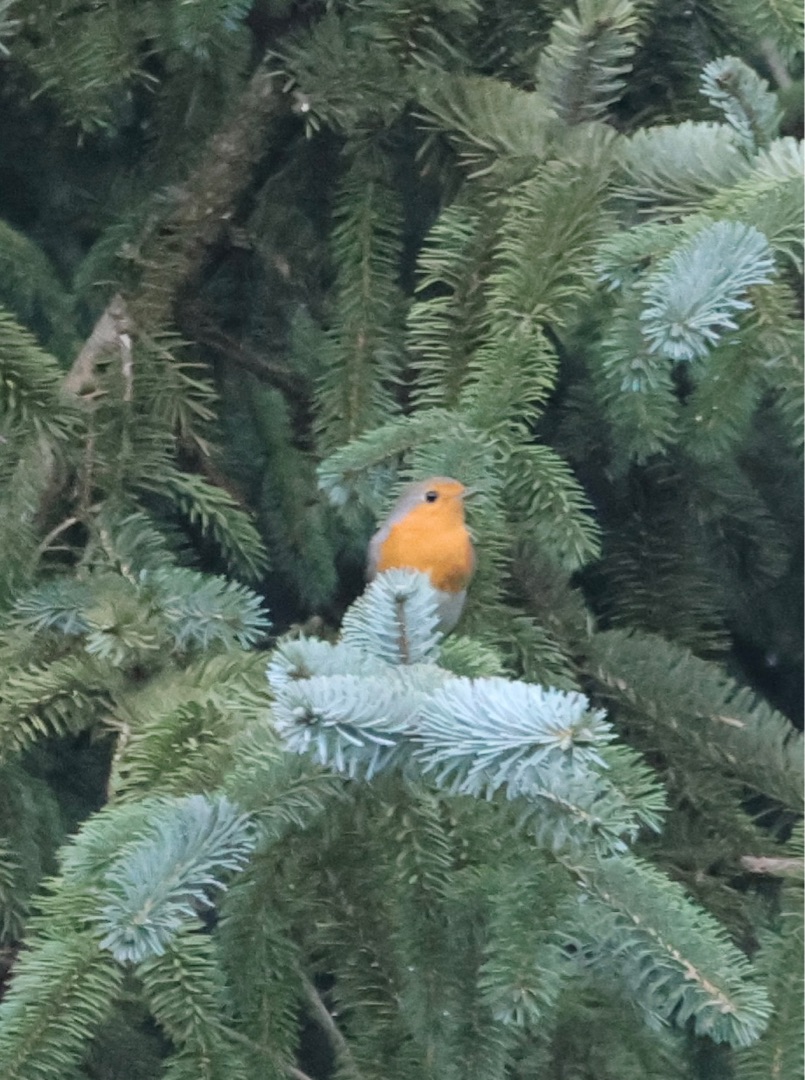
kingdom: Animalia
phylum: Chordata
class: Aves
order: Passeriformes
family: Muscicapidae
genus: Erithacus
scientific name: Erithacus rubecula
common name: Rødhals/rødkælk
